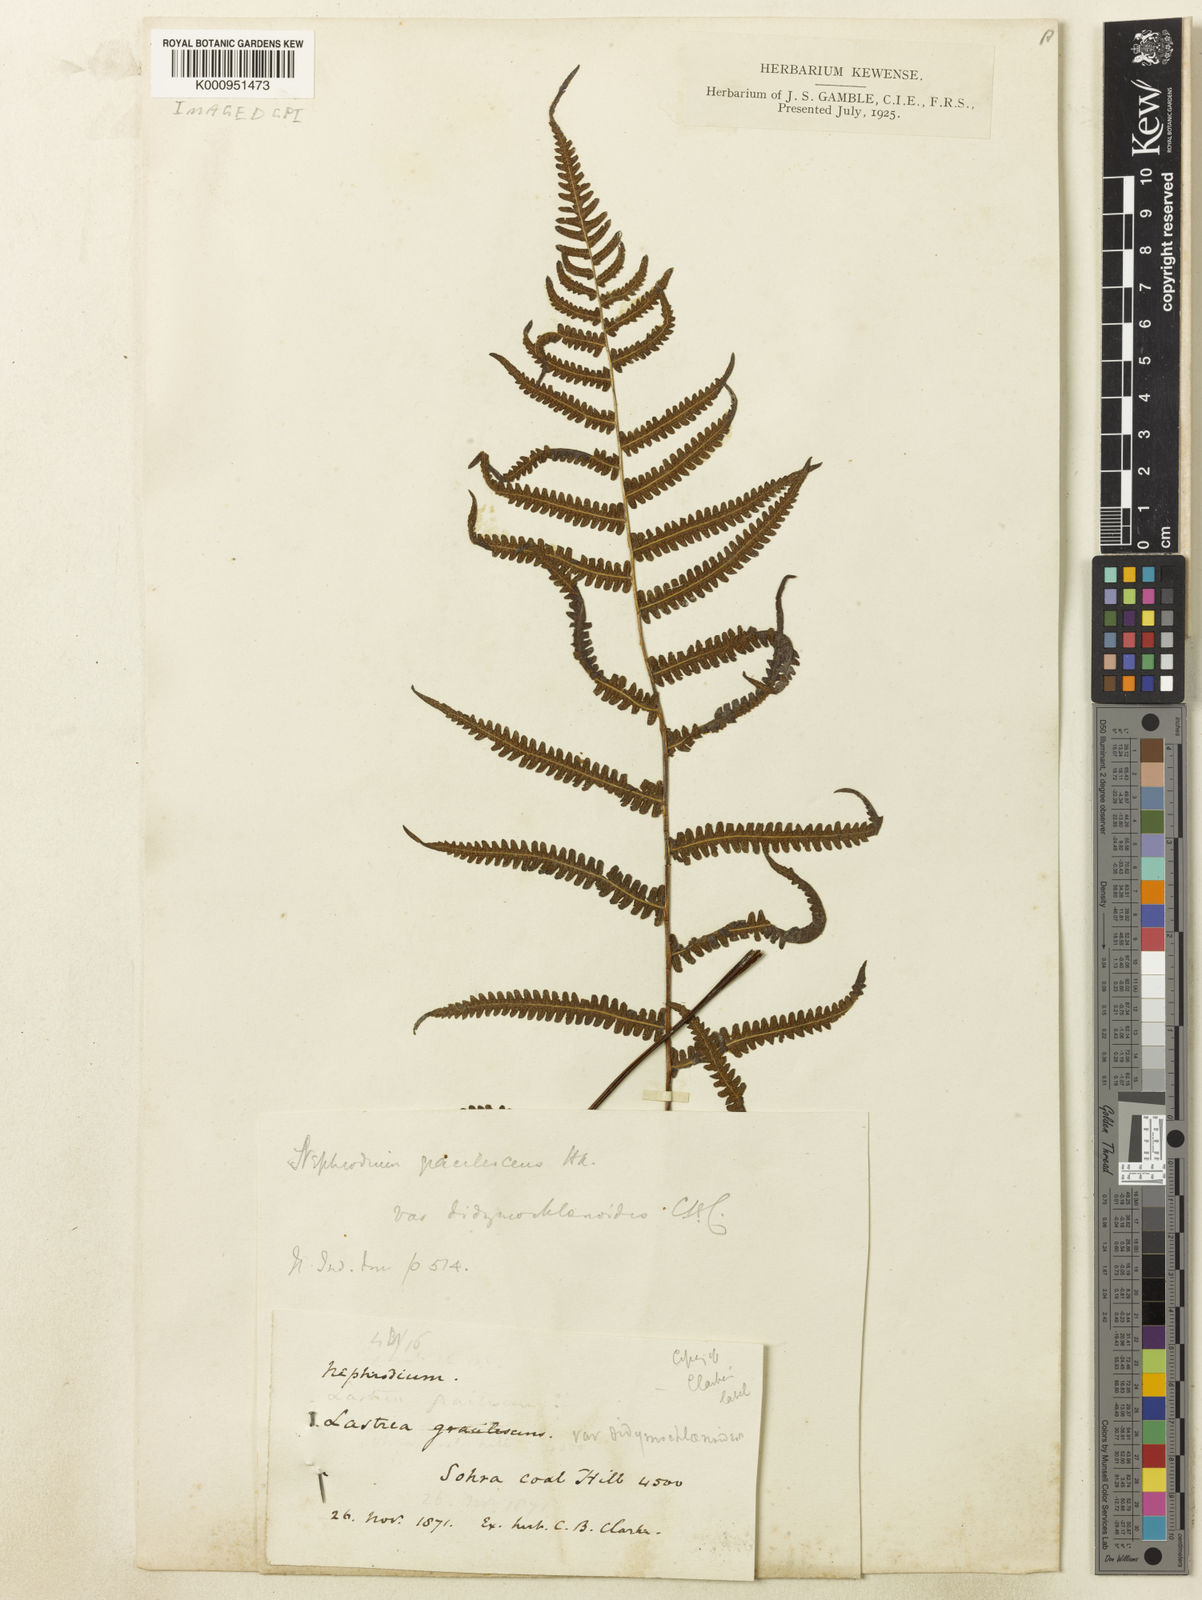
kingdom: Plantae
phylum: Tracheophyta
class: Polypodiopsida
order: Polypodiales
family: Thelypteridaceae
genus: Thelypteris
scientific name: Thelypteris
